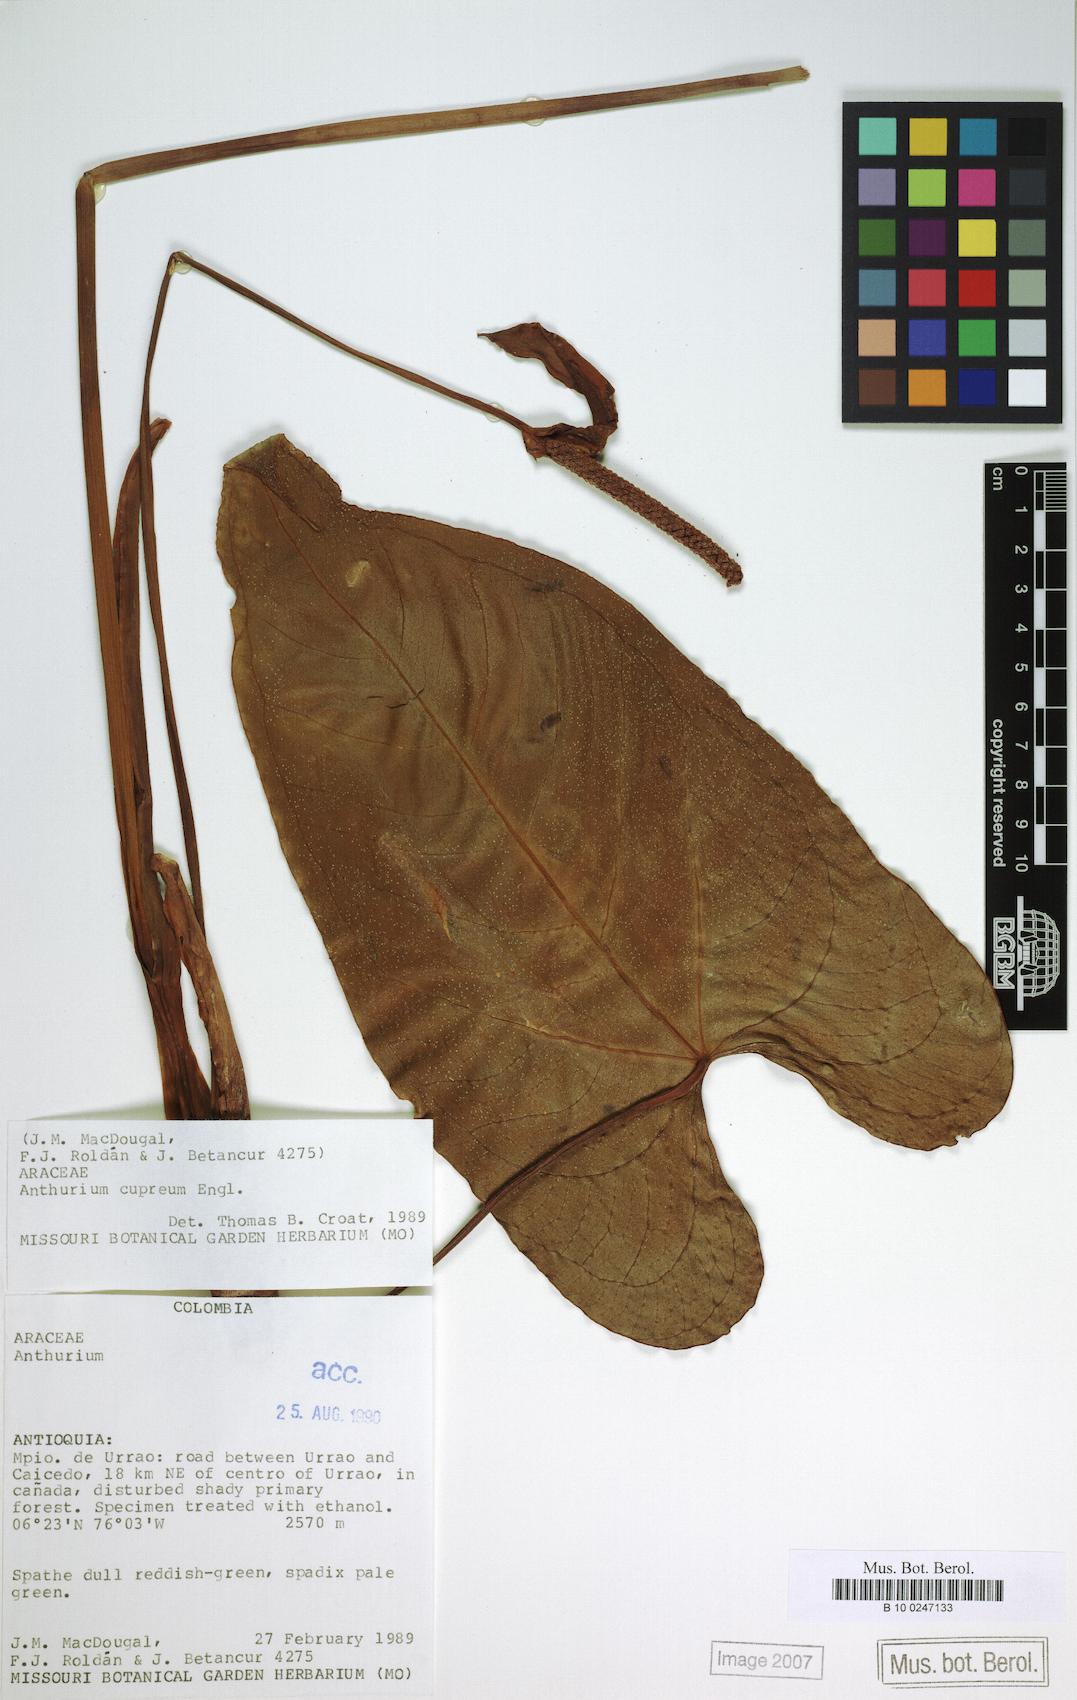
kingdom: Plantae
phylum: Tracheophyta
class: Liliopsida
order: Alismatales
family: Araceae
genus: Anthurium
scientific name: Anthurium cupreum
